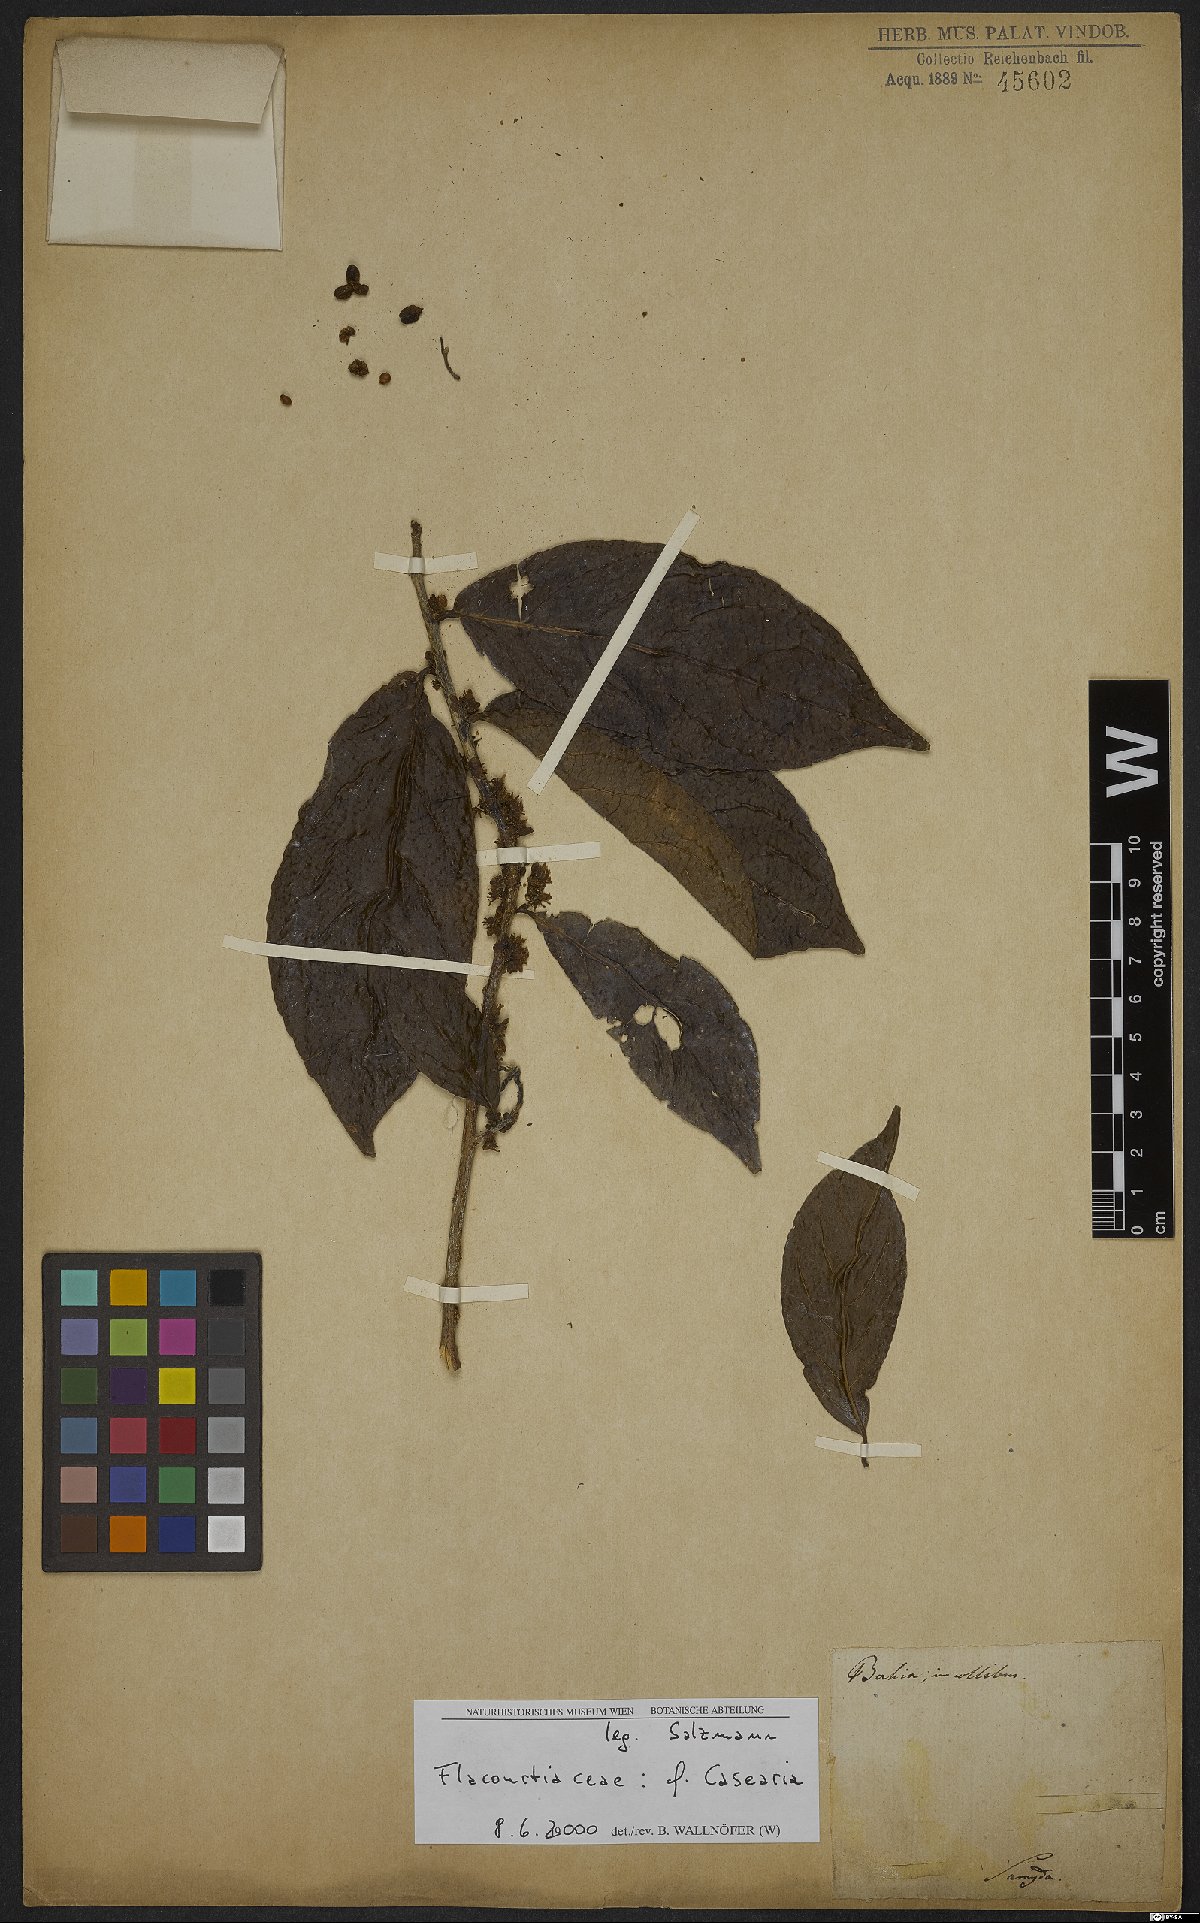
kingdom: Plantae
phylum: Tracheophyta
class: Magnoliopsida
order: Malpighiales
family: Salicaceae
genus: Casearia
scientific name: Casearia
